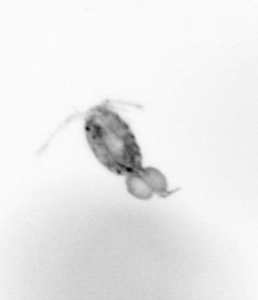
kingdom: Animalia
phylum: Arthropoda
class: Copepoda
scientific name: Copepoda
